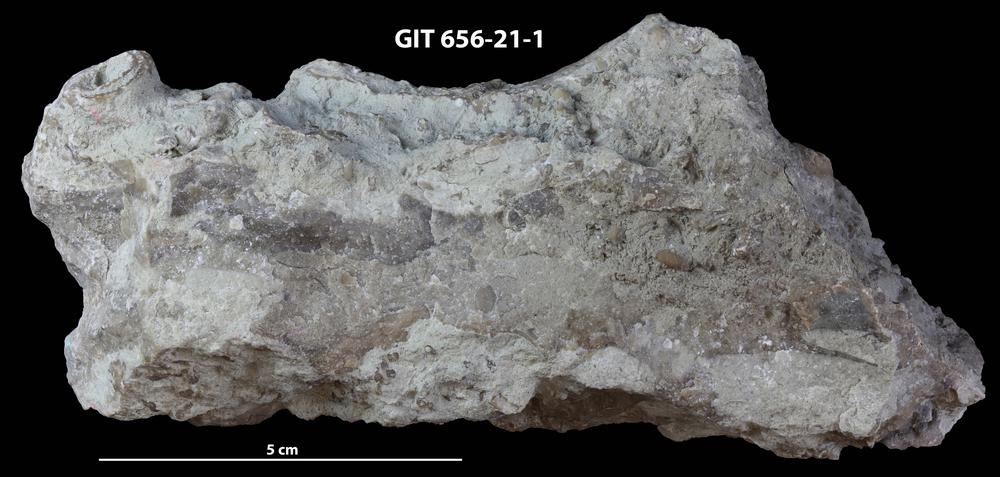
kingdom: Animalia
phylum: Porifera
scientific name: Porifera
